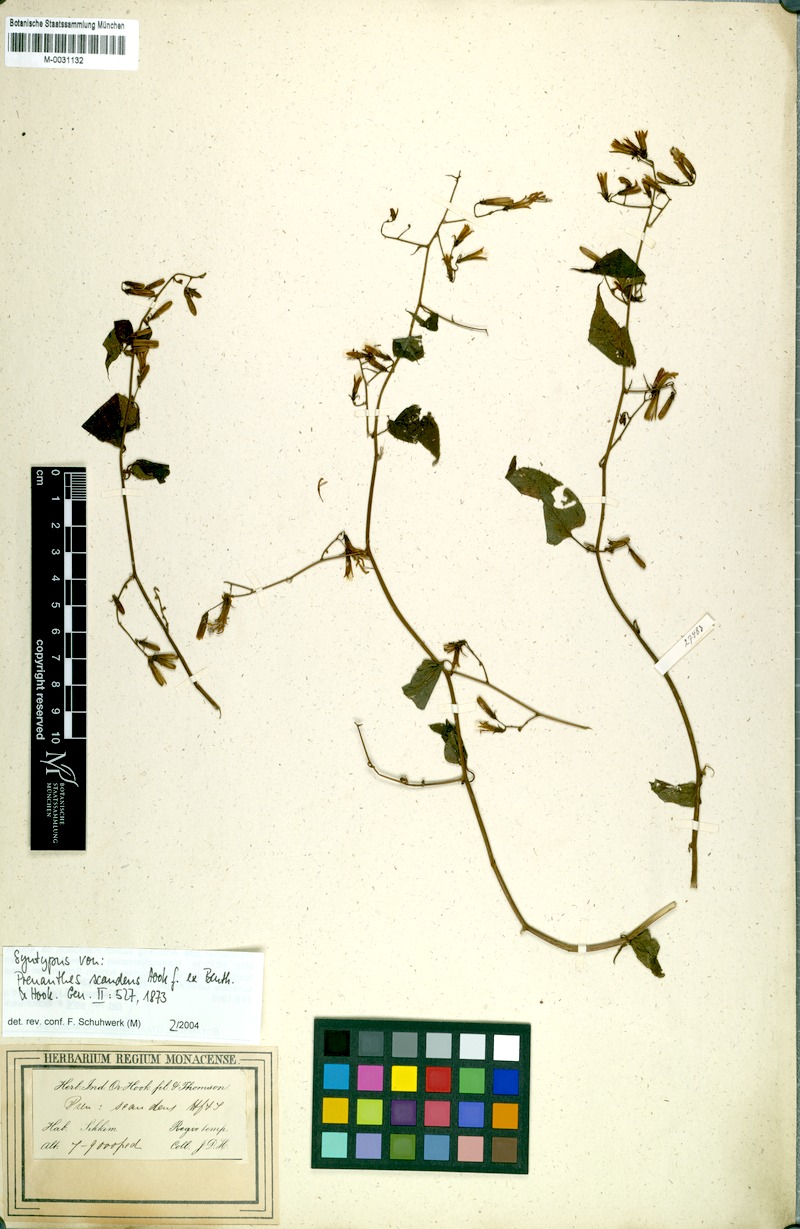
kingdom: Plantae
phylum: Tracheophyta
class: Magnoliopsida
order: Asterales
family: Asteraceae
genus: Notoseris
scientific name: Notoseris scandens
